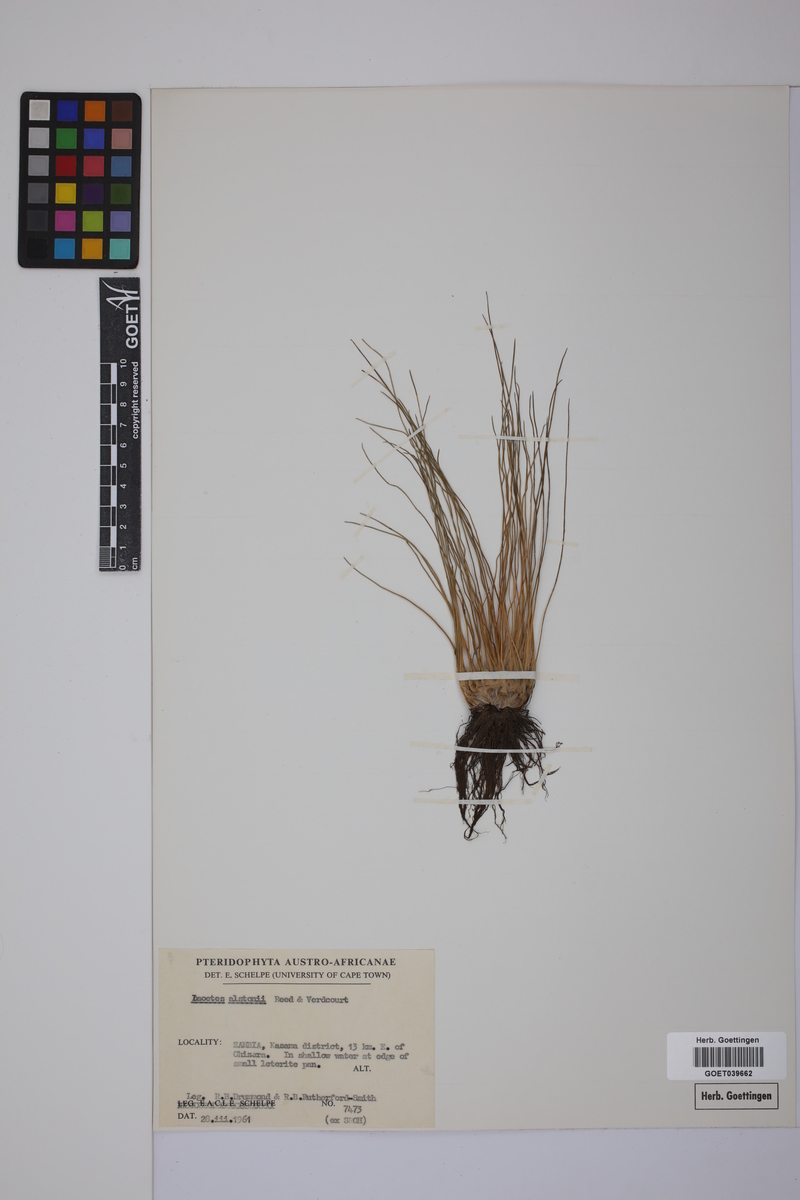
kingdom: Plantae
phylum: Tracheophyta
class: Lycopodiopsida
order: Isoetales
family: Isoetaceae
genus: Isoetes
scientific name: Isoetes alstonii
